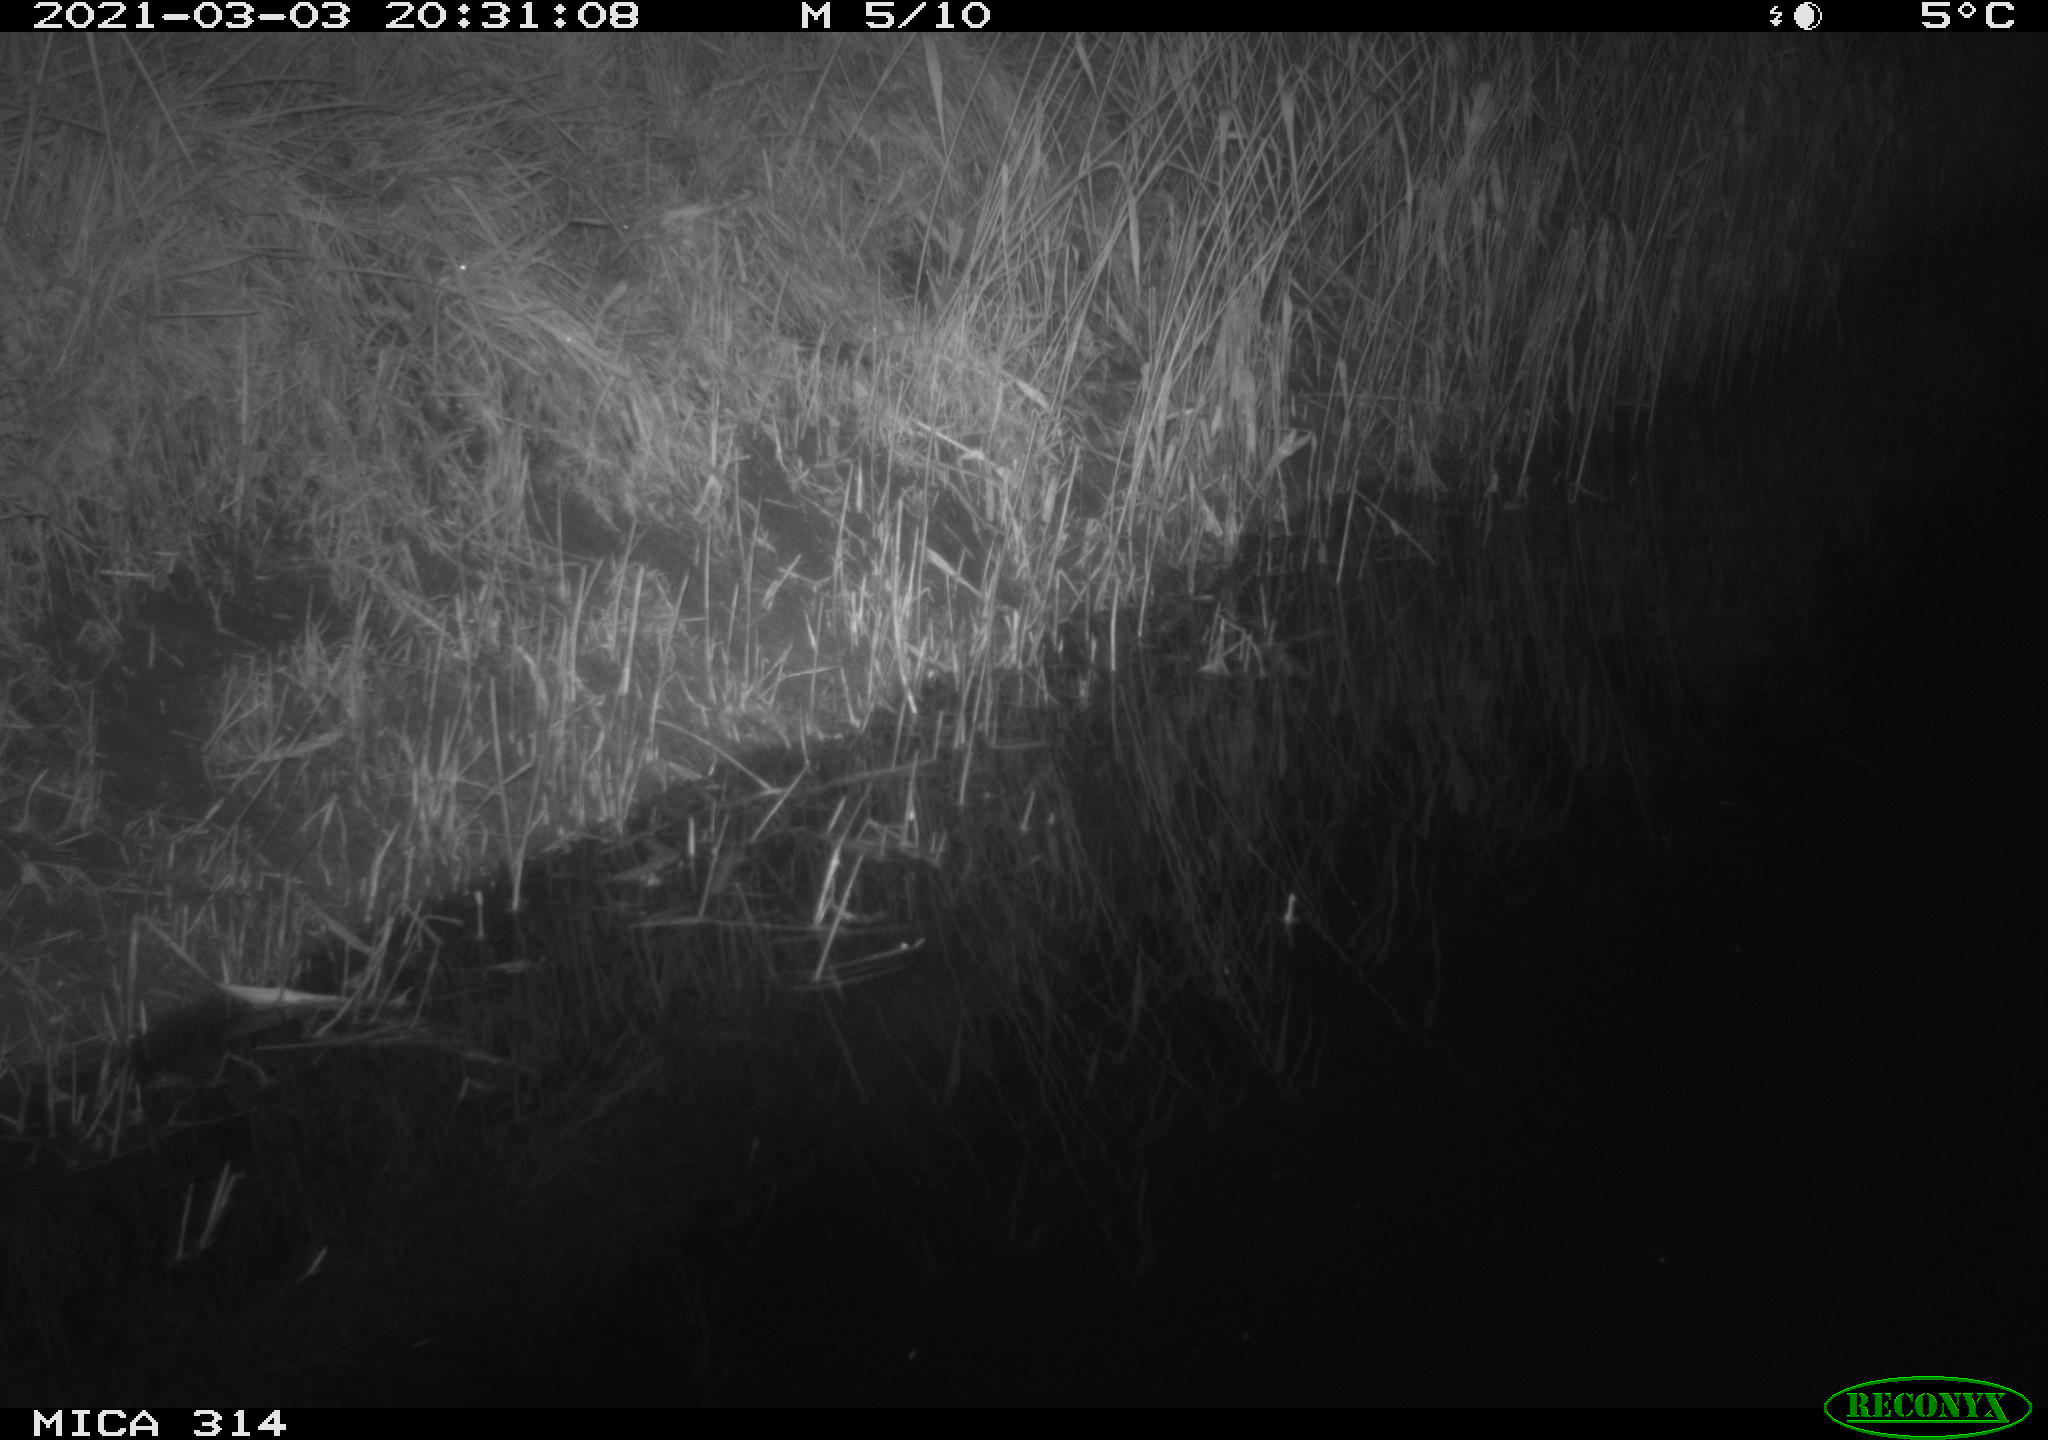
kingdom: Animalia
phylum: Chordata
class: Mammalia
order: Rodentia
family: Muridae
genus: Rattus
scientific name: Rattus norvegicus
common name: Brown rat
